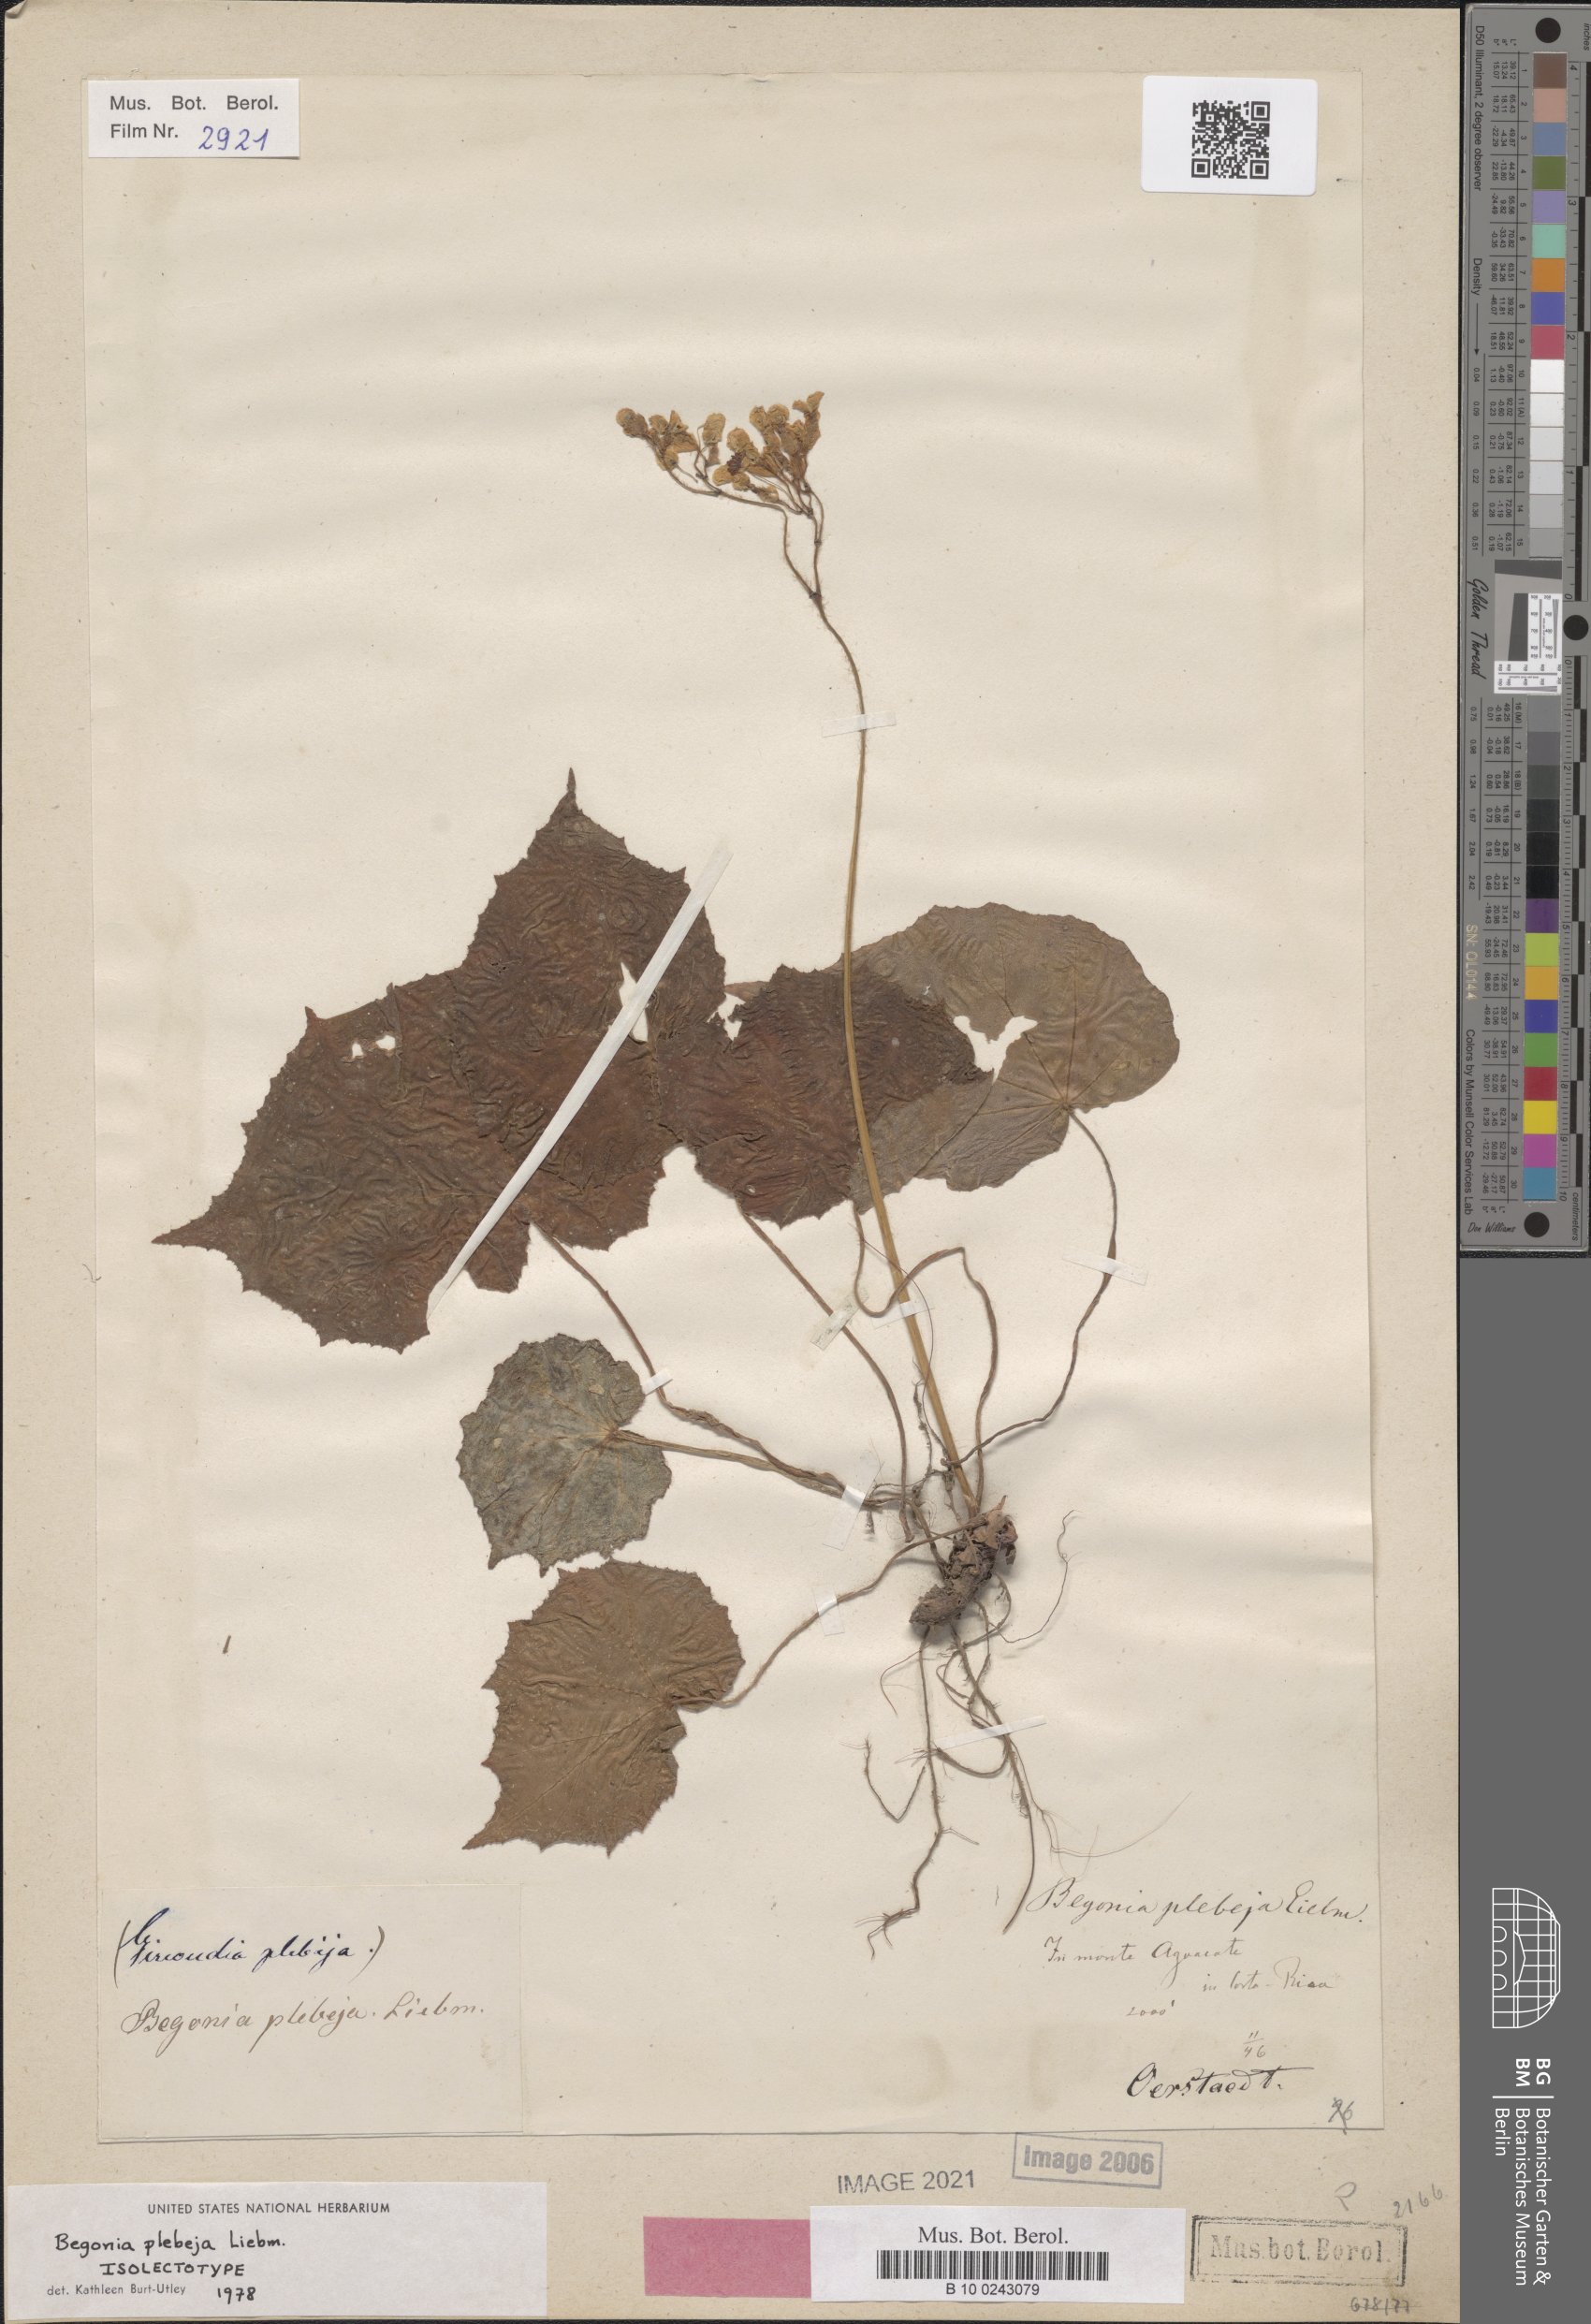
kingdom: Plantae
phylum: Tracheophyta
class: Magnoliopsida
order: Cucurbitales
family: Begoniaceae
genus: Begonia
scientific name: Begonia plebeja
